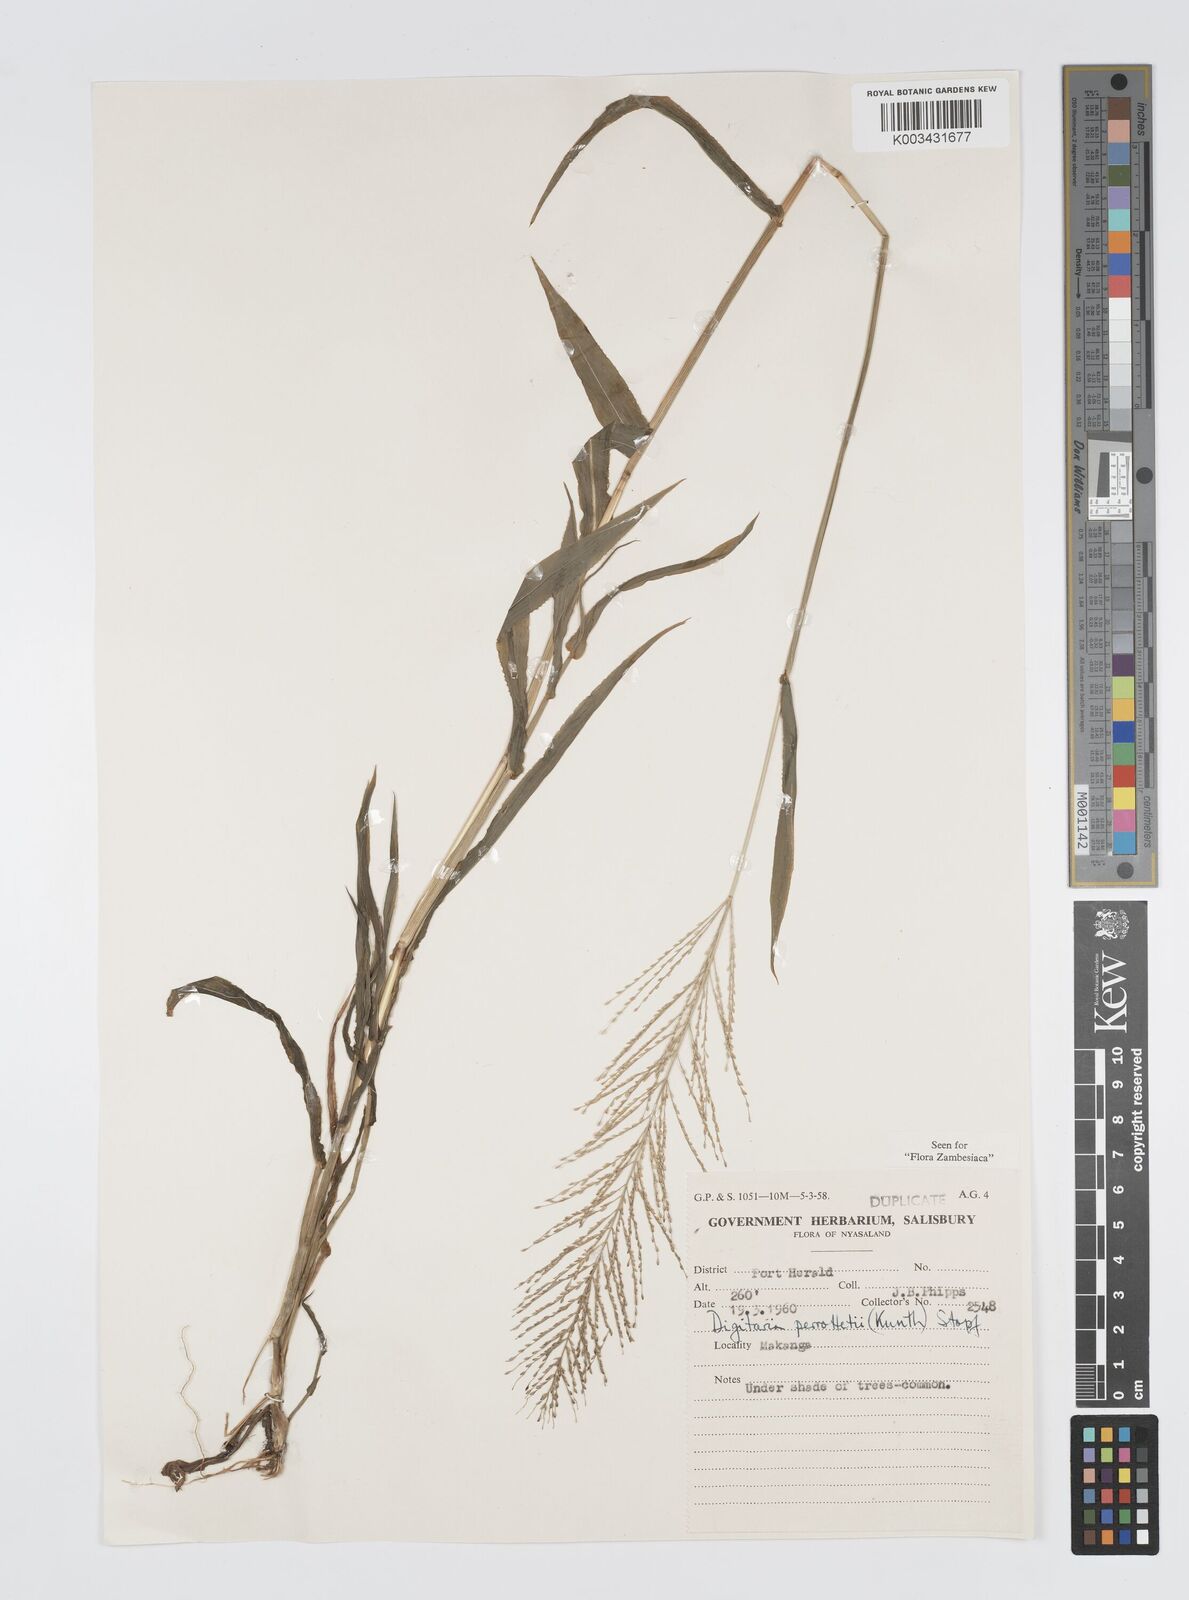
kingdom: Plantae
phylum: Tracheophyta
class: Liliopsida
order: Poales
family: Poaceae
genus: Digitaria
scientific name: Digitaria perrottetii
